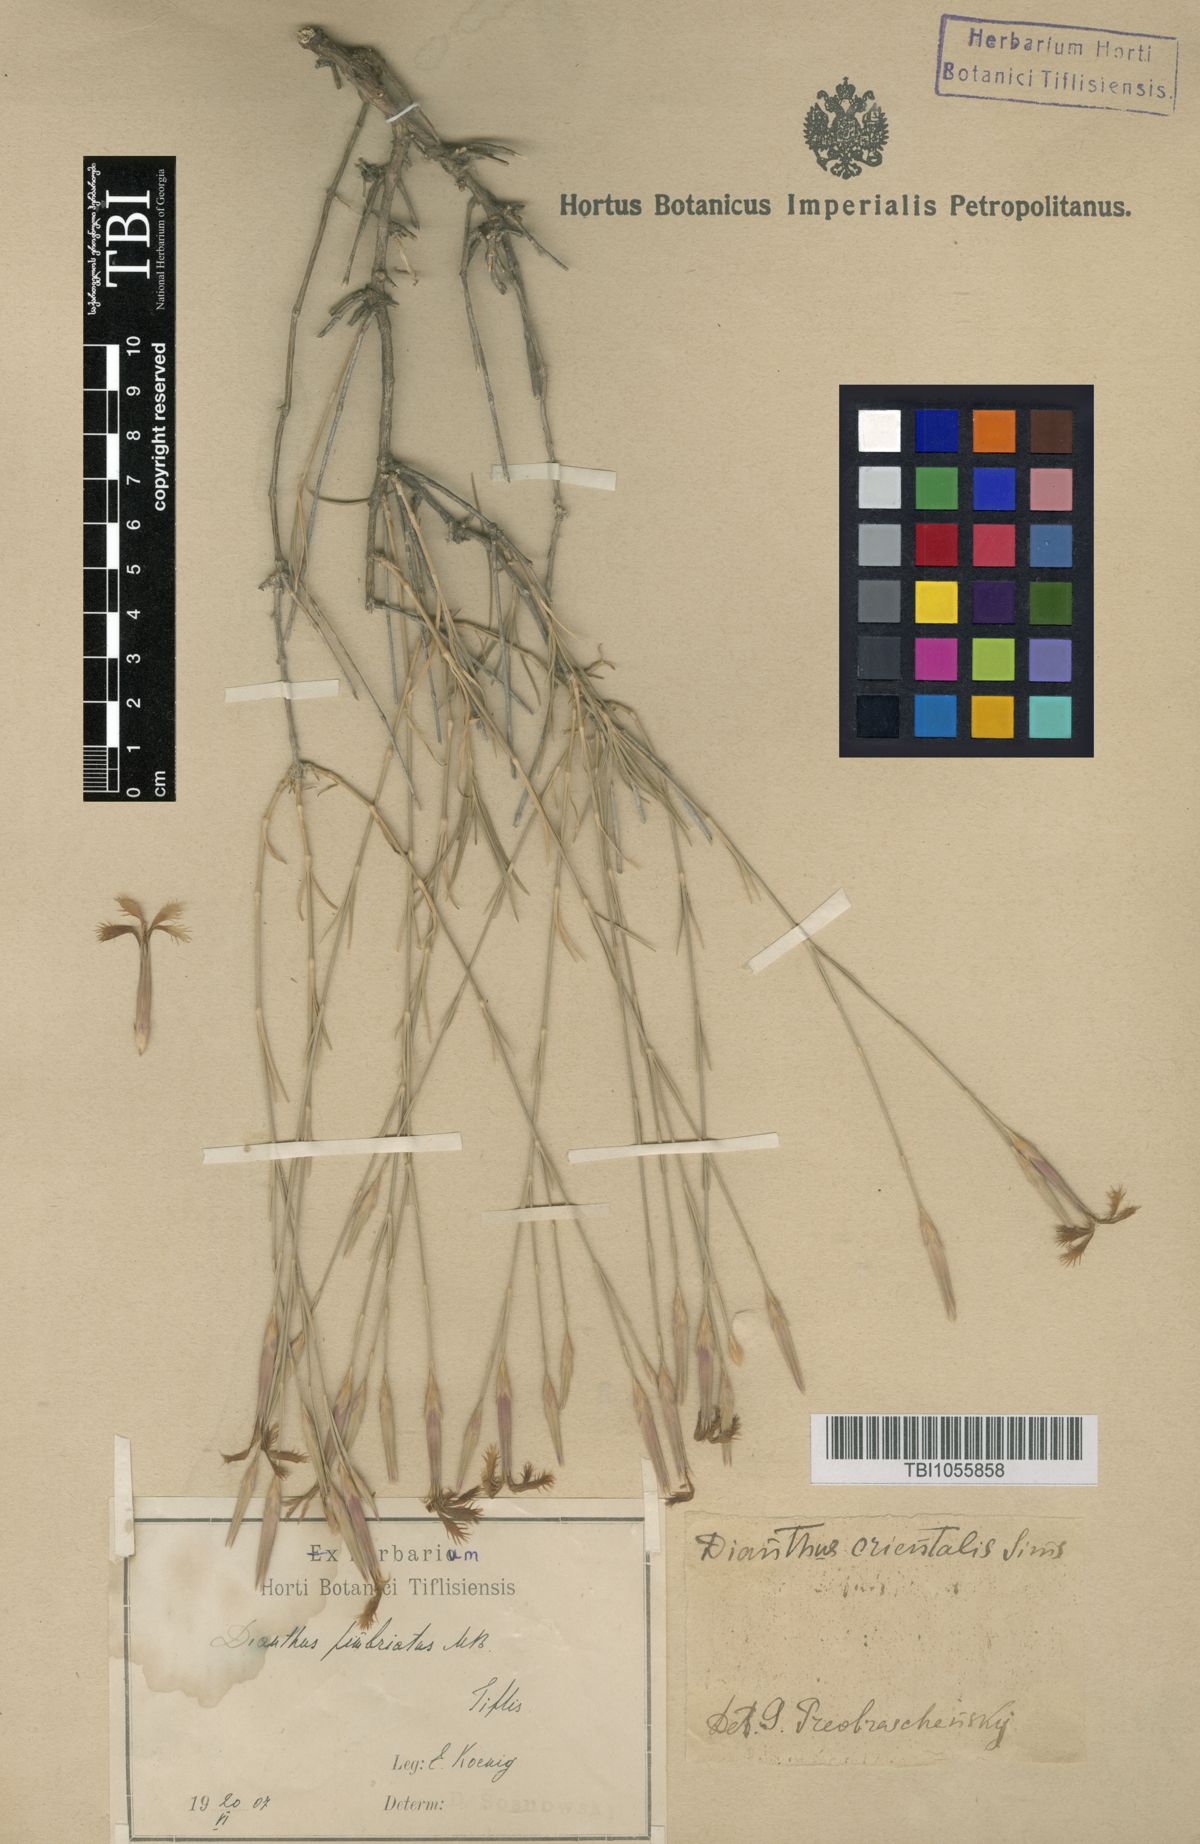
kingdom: Plantae
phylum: Tracheophyta
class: Magnoliopsida
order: Caryophyllales
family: Caryophyllaceae
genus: Dianthus
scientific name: Dianthus orientalis
